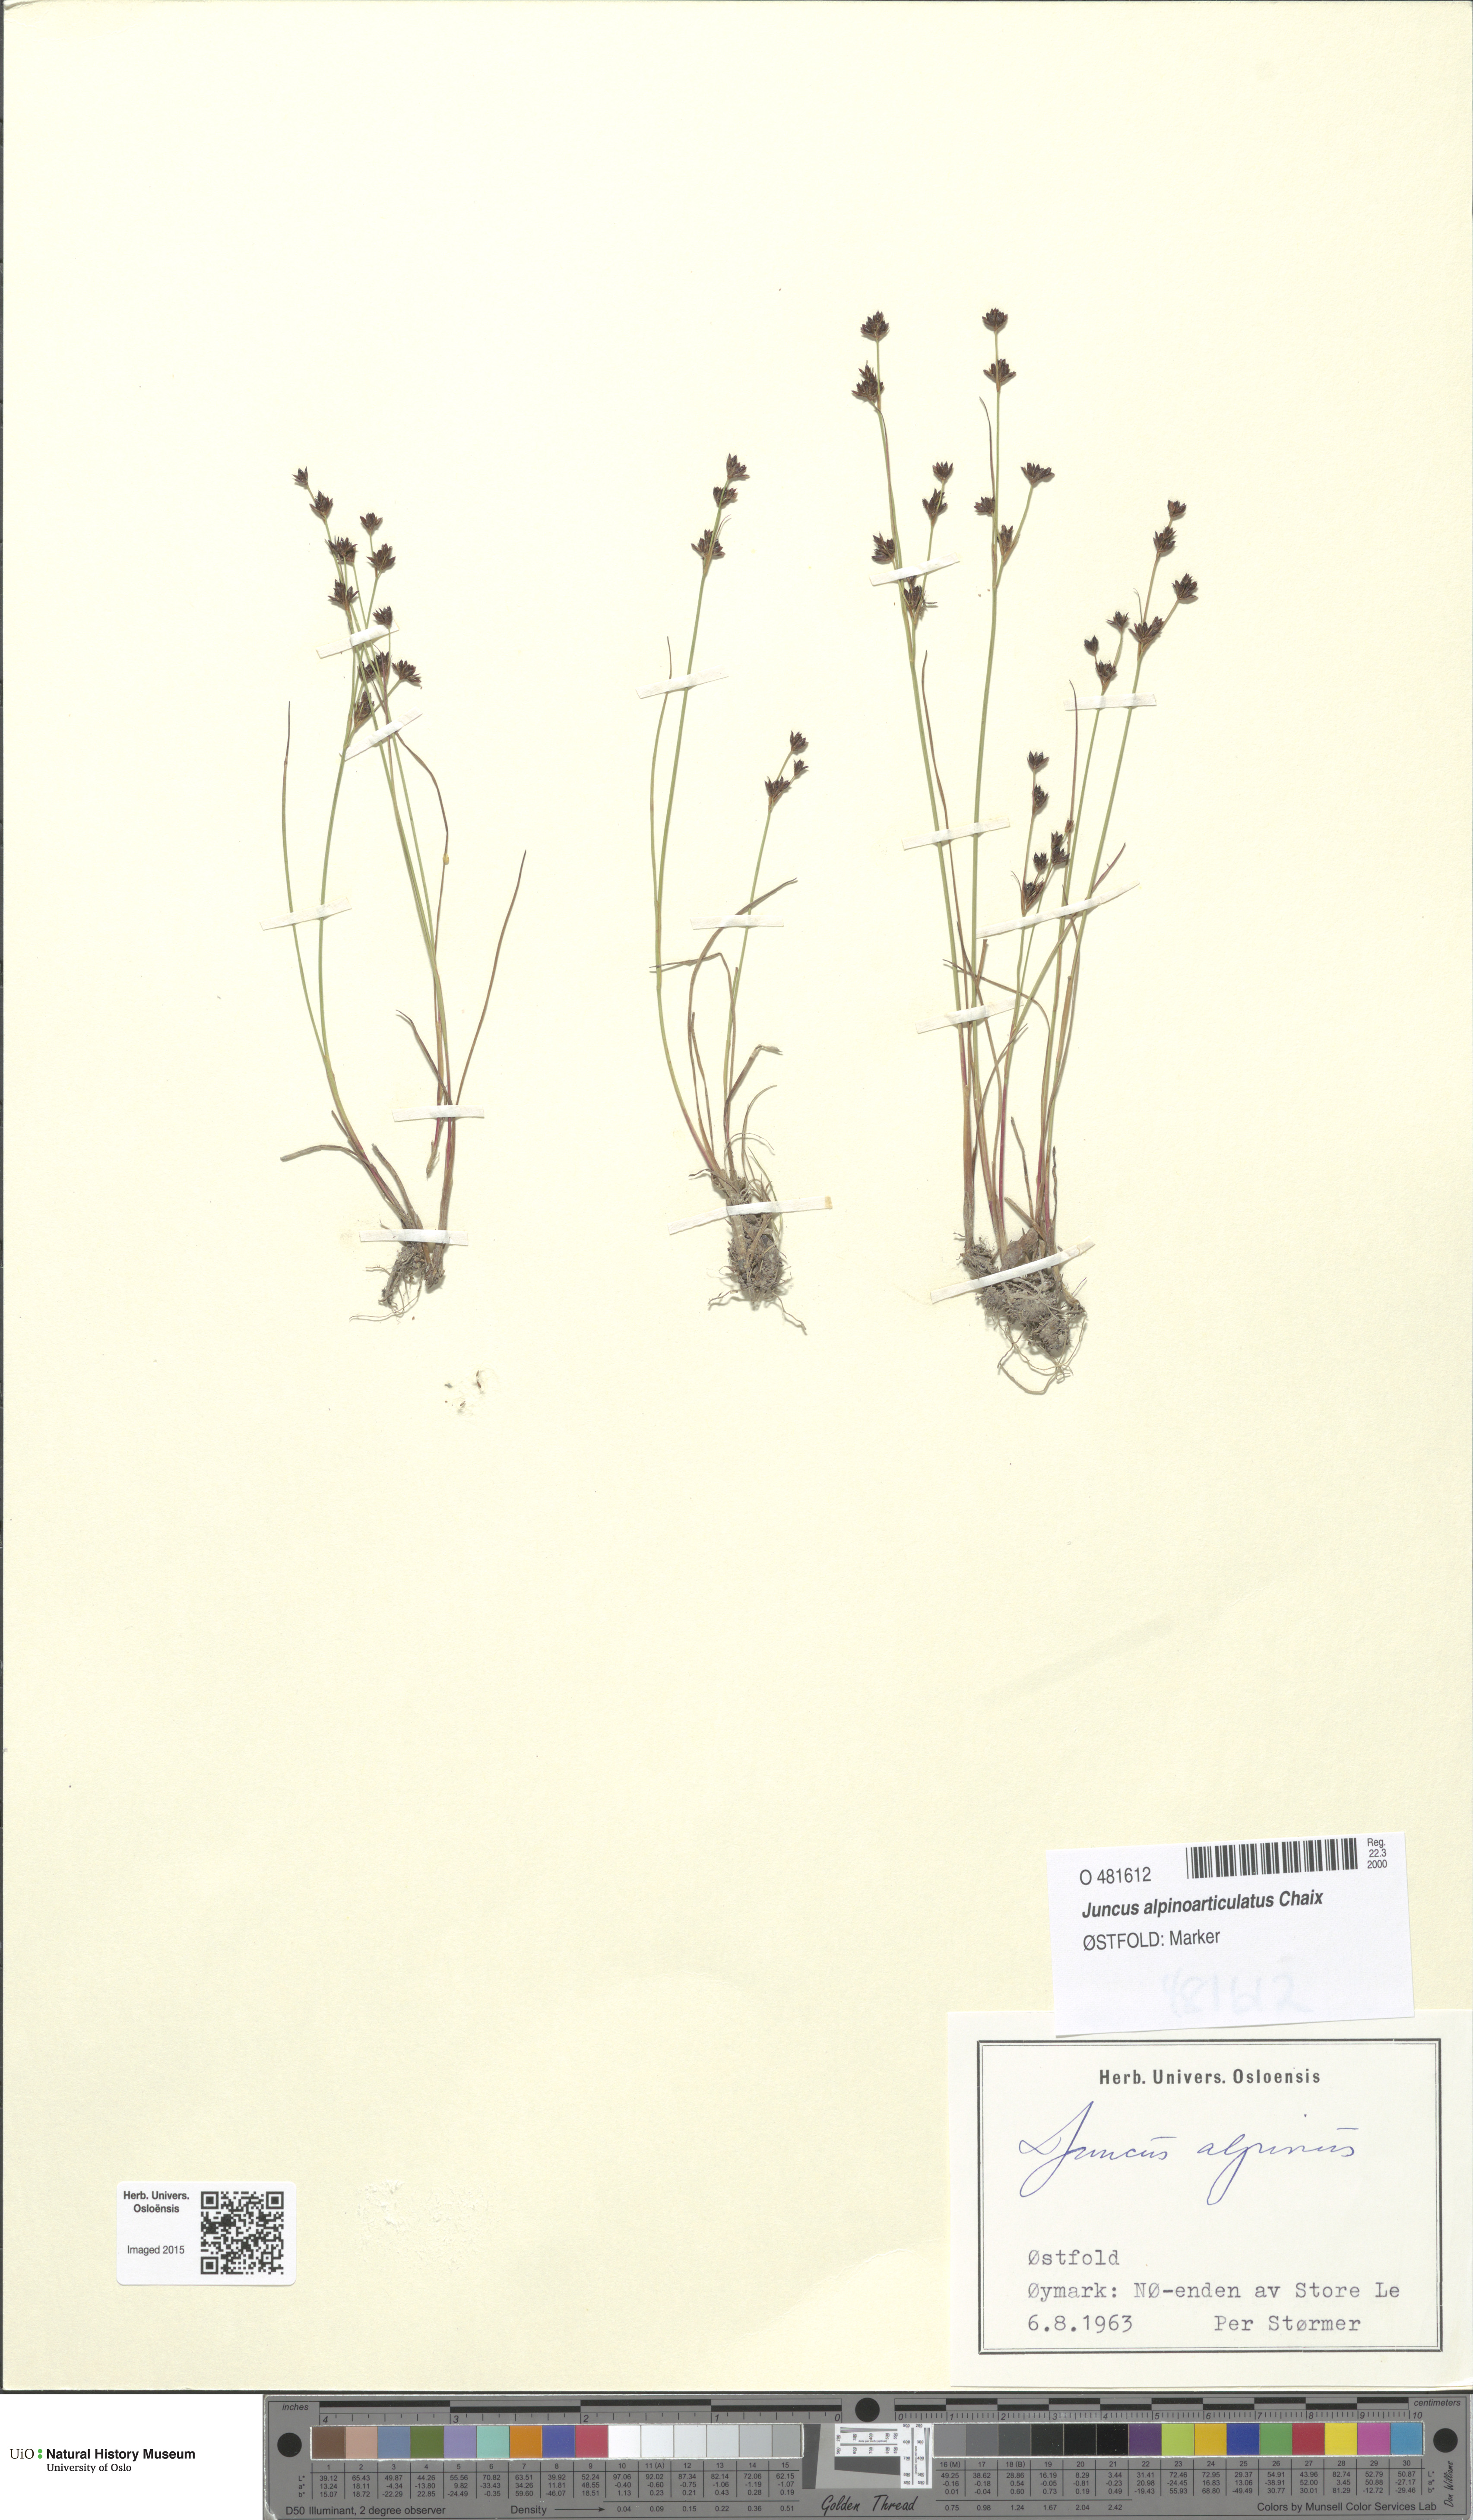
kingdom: Plantae
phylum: Tracheophyta
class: Liliopsida
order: Poales
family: Juncaceae
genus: Juncus
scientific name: Juncus alpinoarticulatus
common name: Alpine rush
